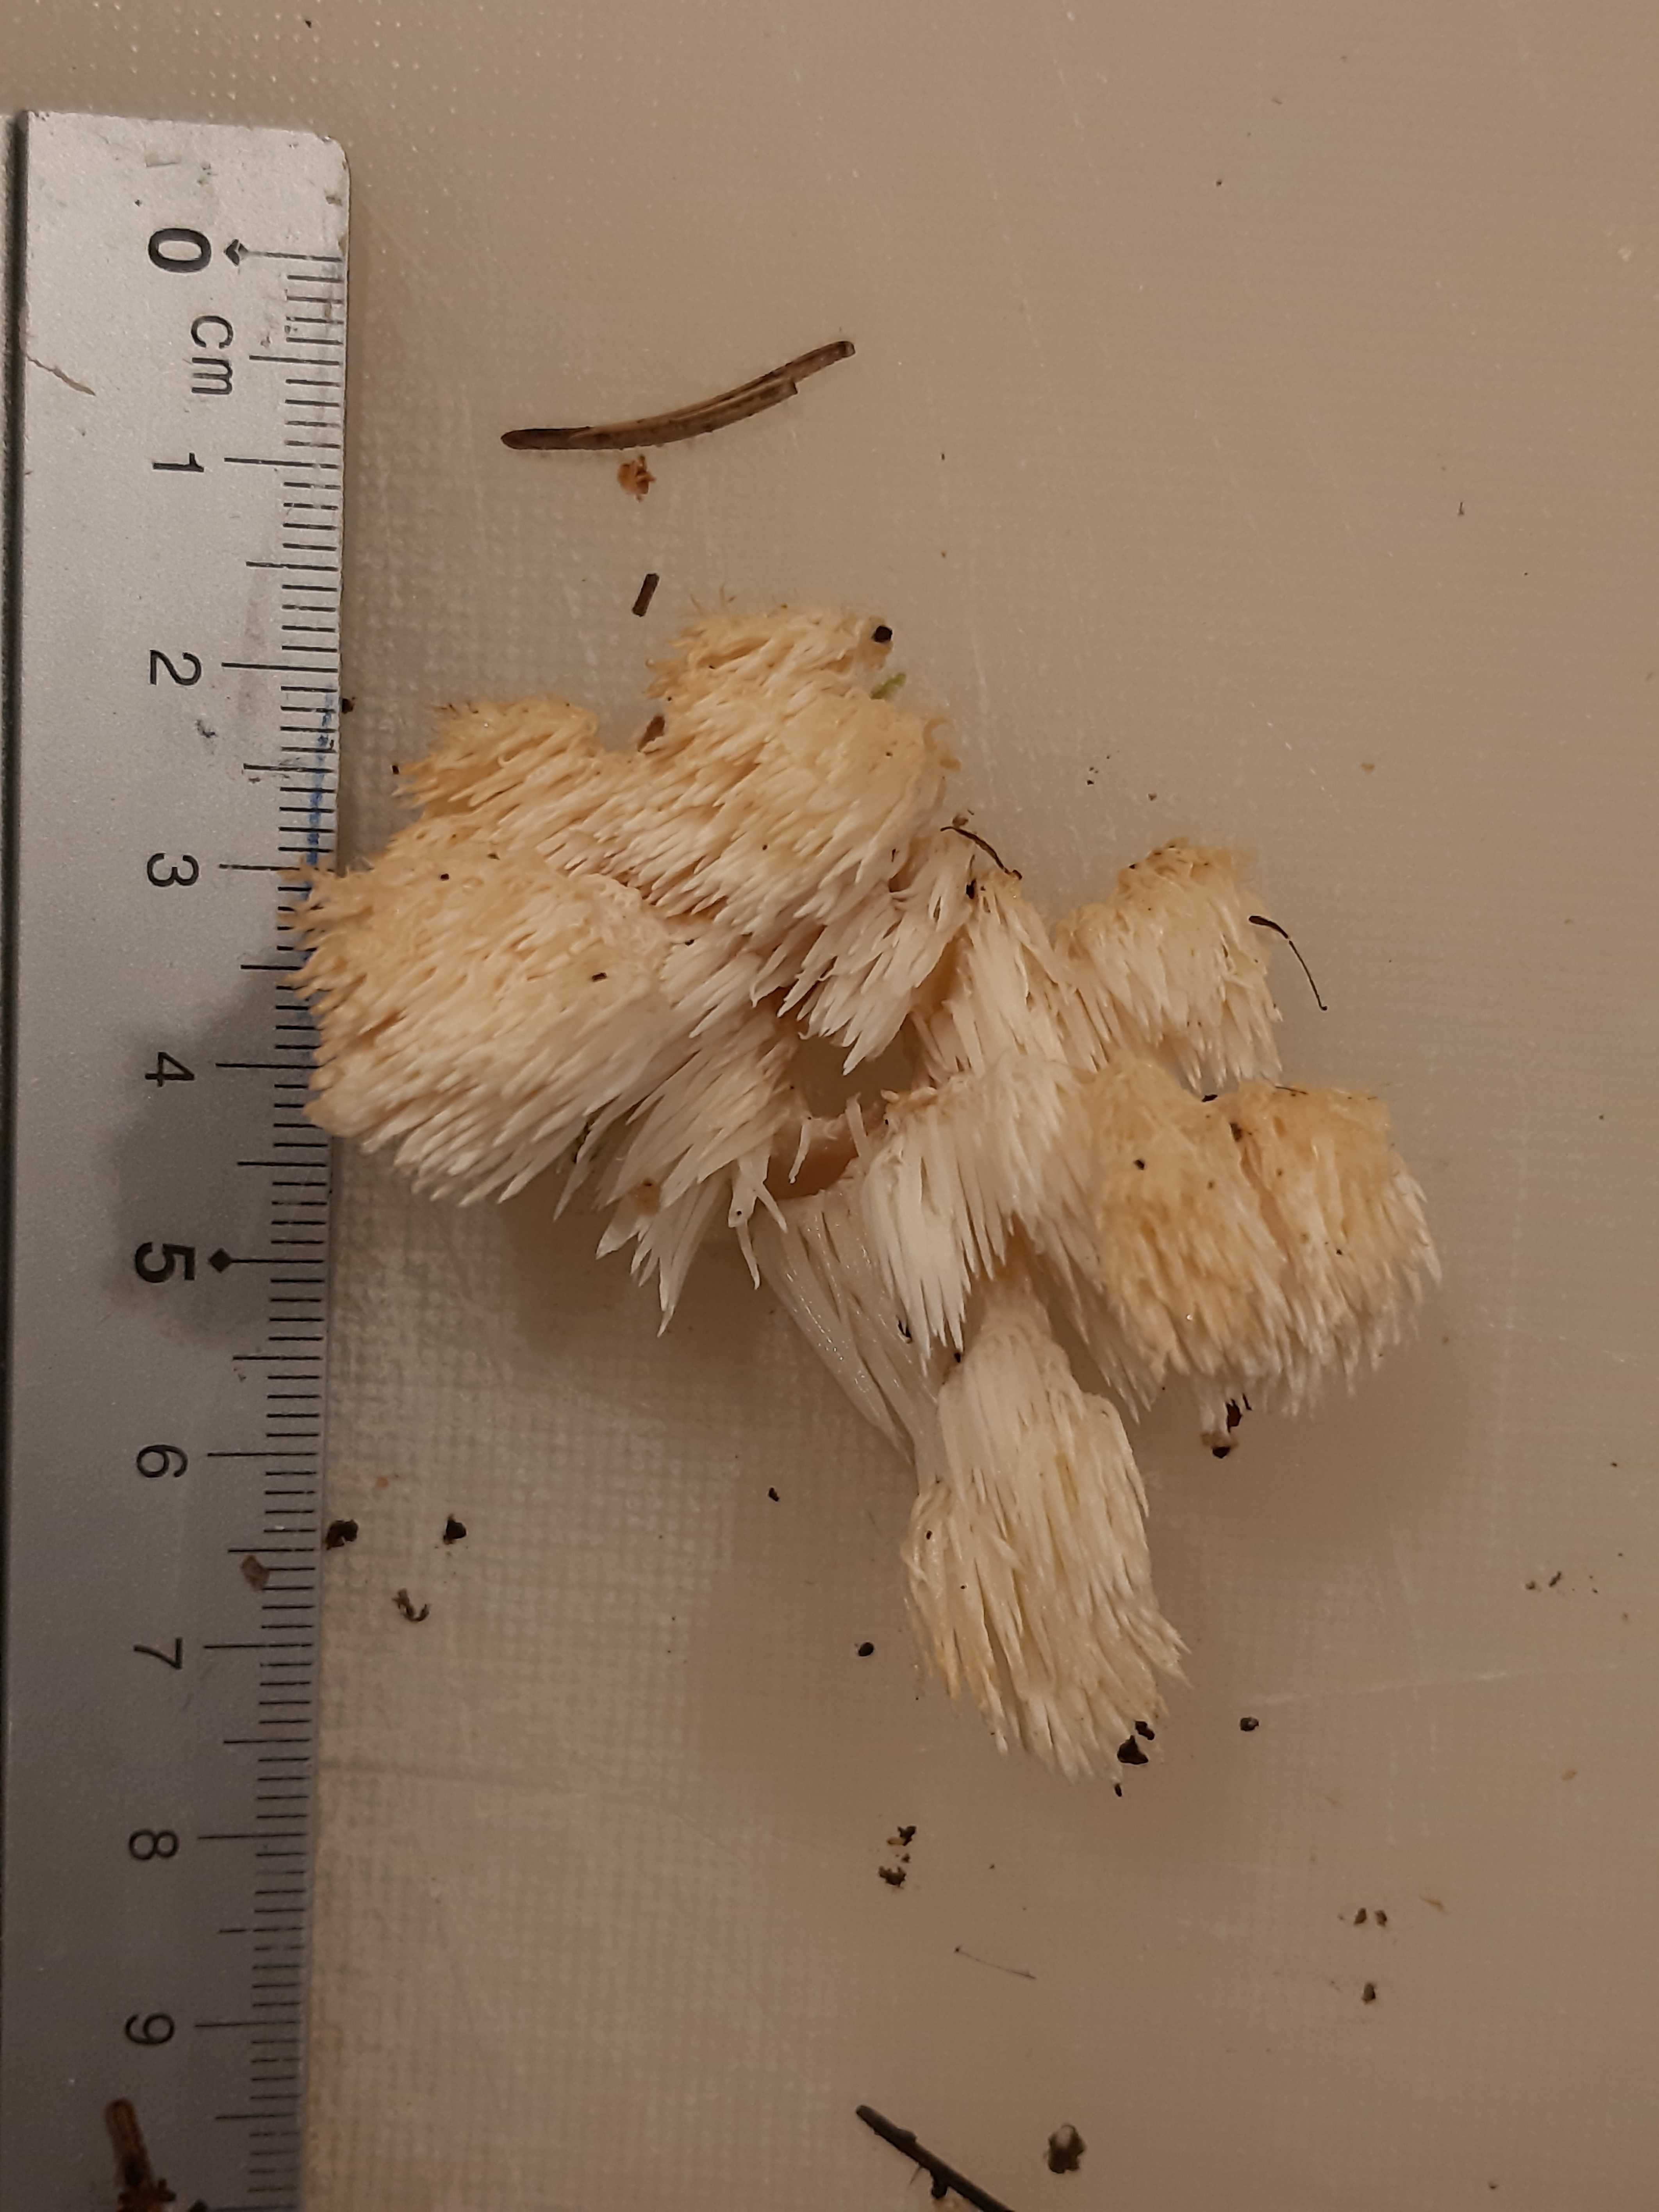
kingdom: Fungi
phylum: Basidiomycota
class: Agaricomycetes
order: Russulales
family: Hericiaceae
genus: Hericium
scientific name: Hericium coralloides
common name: koralpigsvamp
